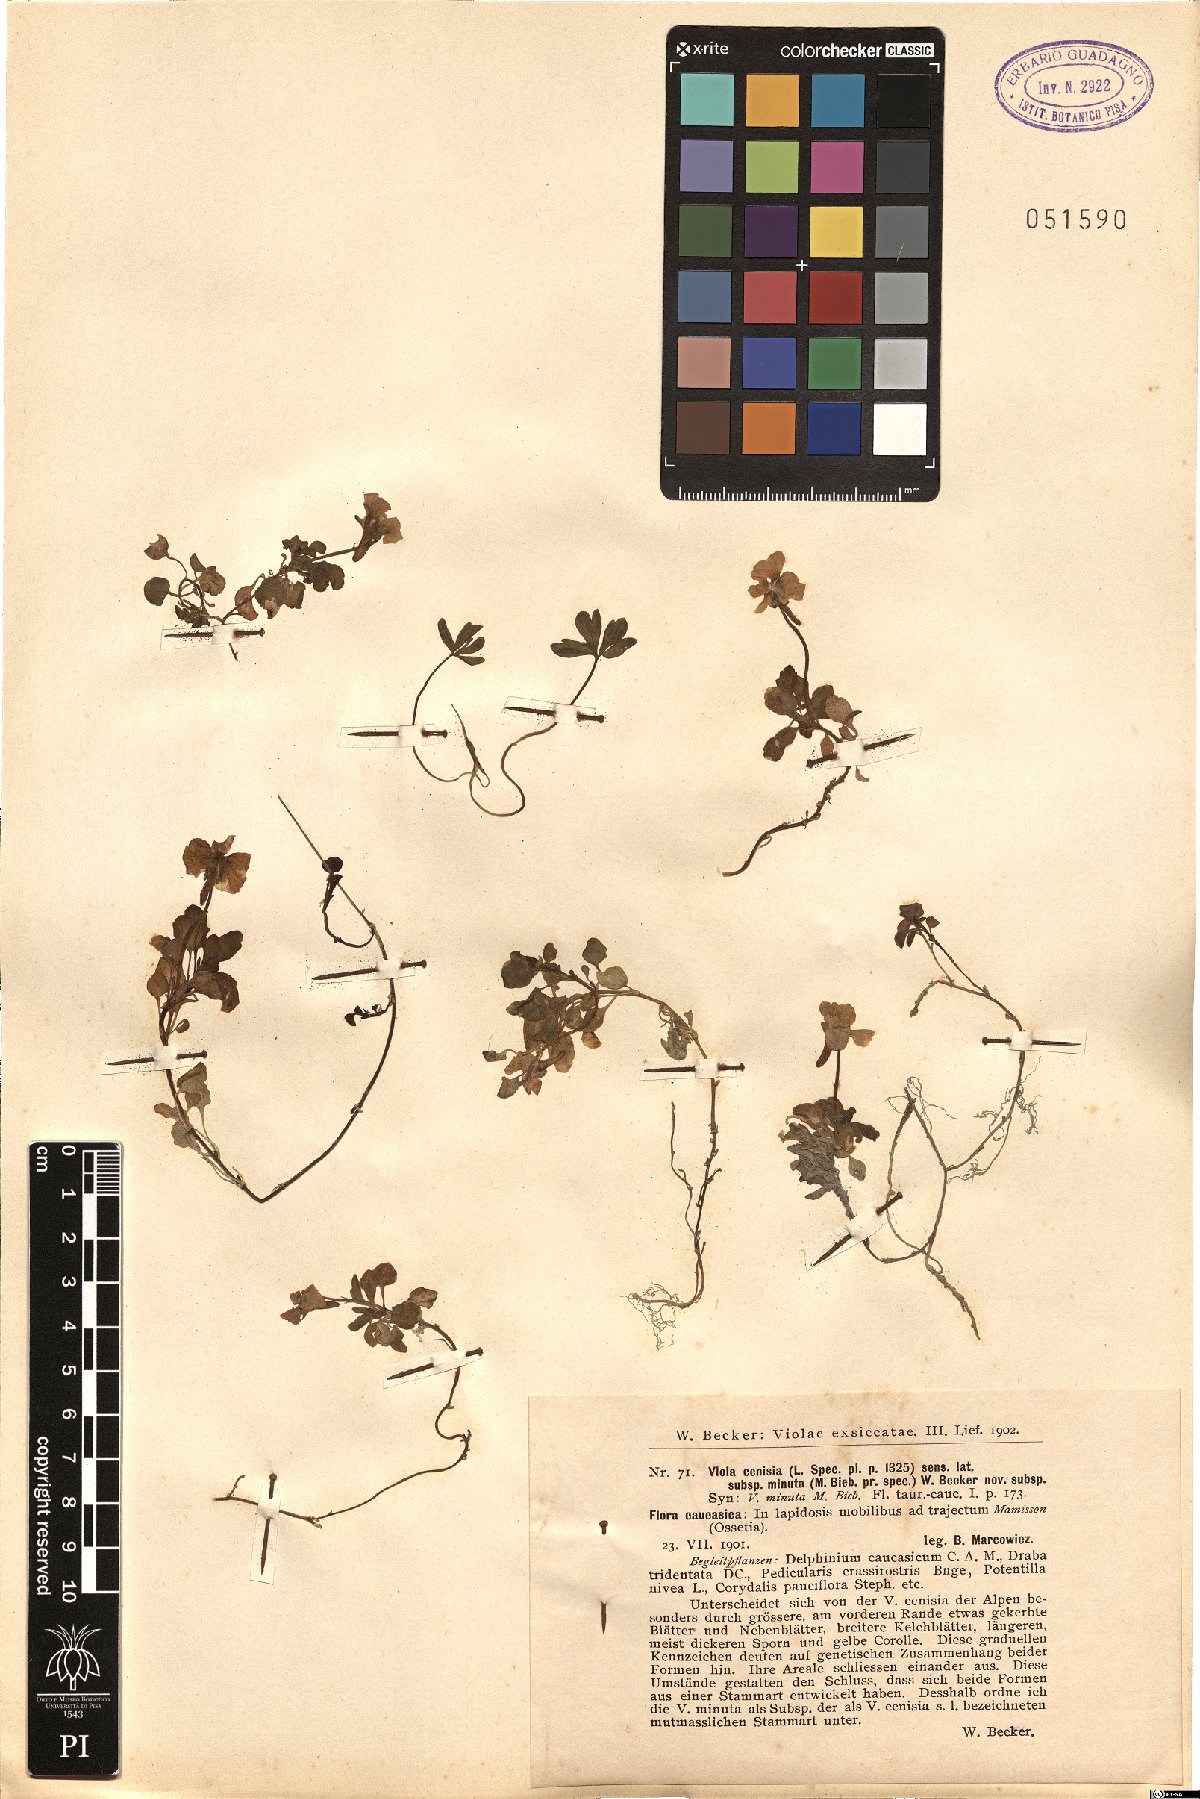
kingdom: Plantae
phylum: Tracheophyta
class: Magnoliopsida
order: Malpighiales
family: Violaceae
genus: Viola
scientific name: Viola cenisia
